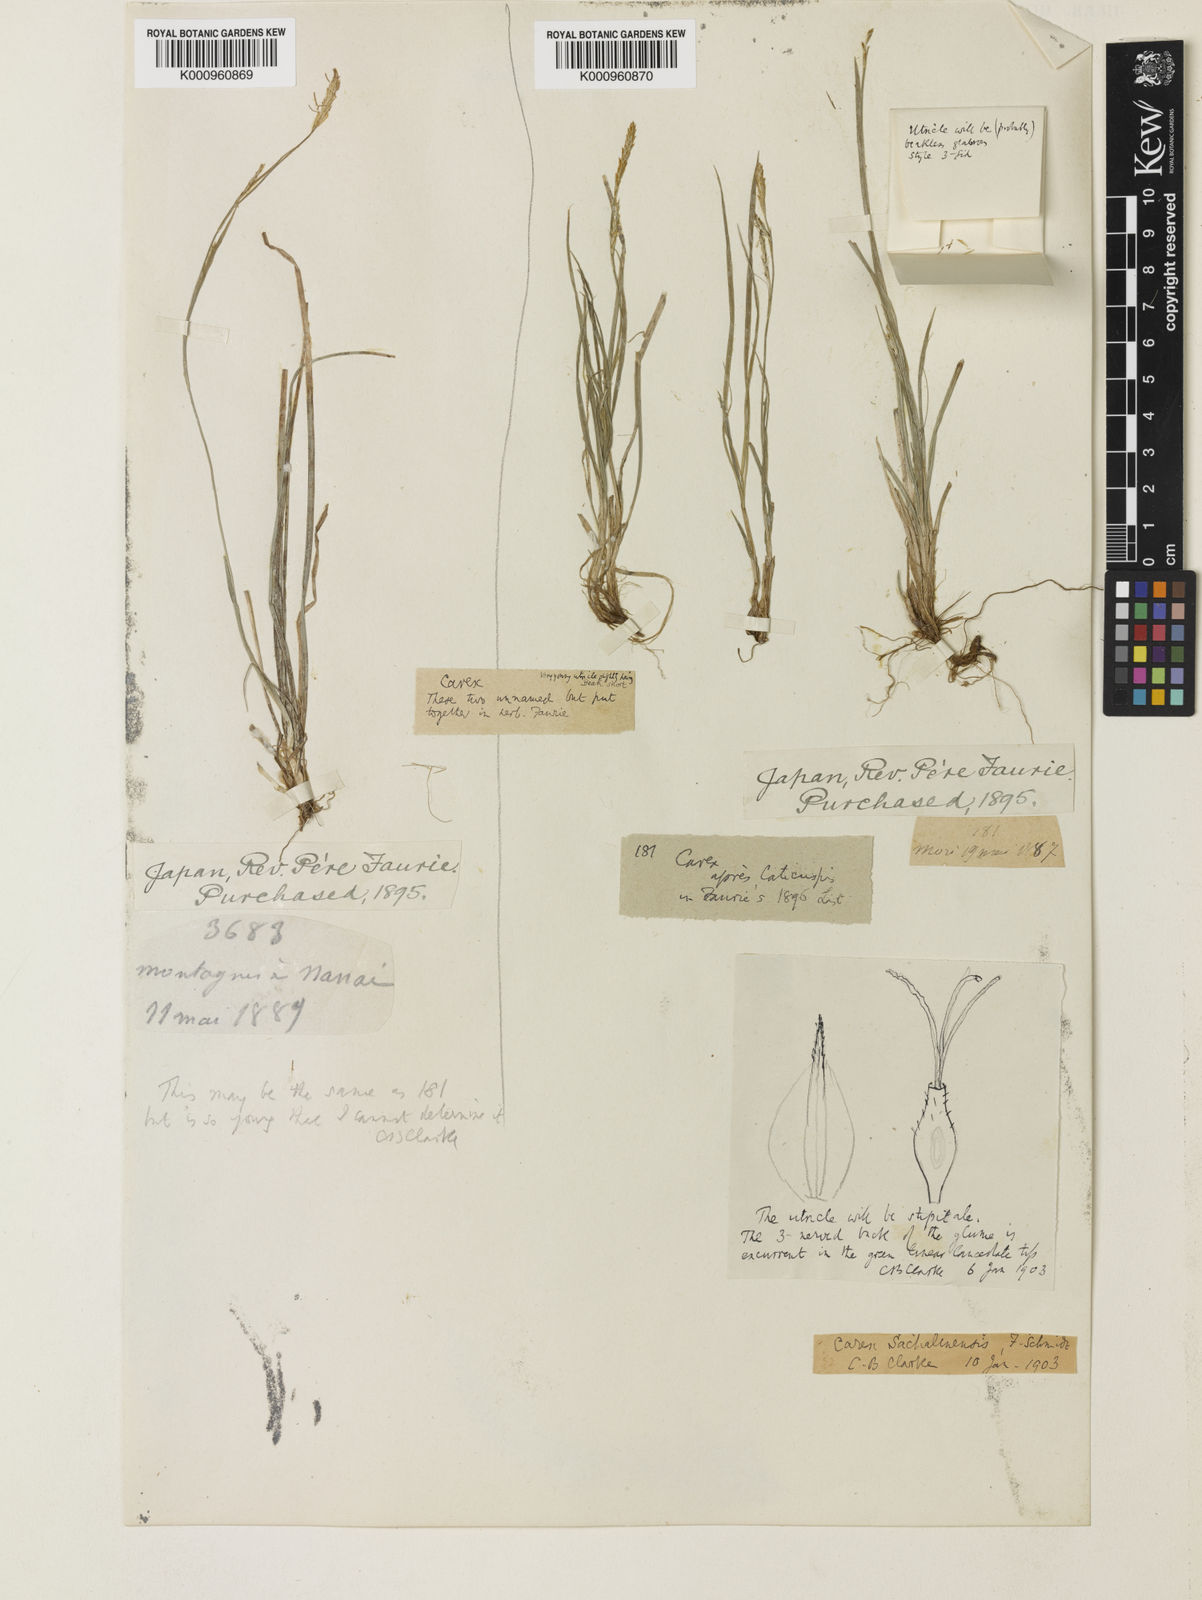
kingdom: Plantae
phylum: Tracheophyta
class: Liliopsida
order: Poales
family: Cyperaceae
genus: Carex
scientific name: Carex pisiformis
